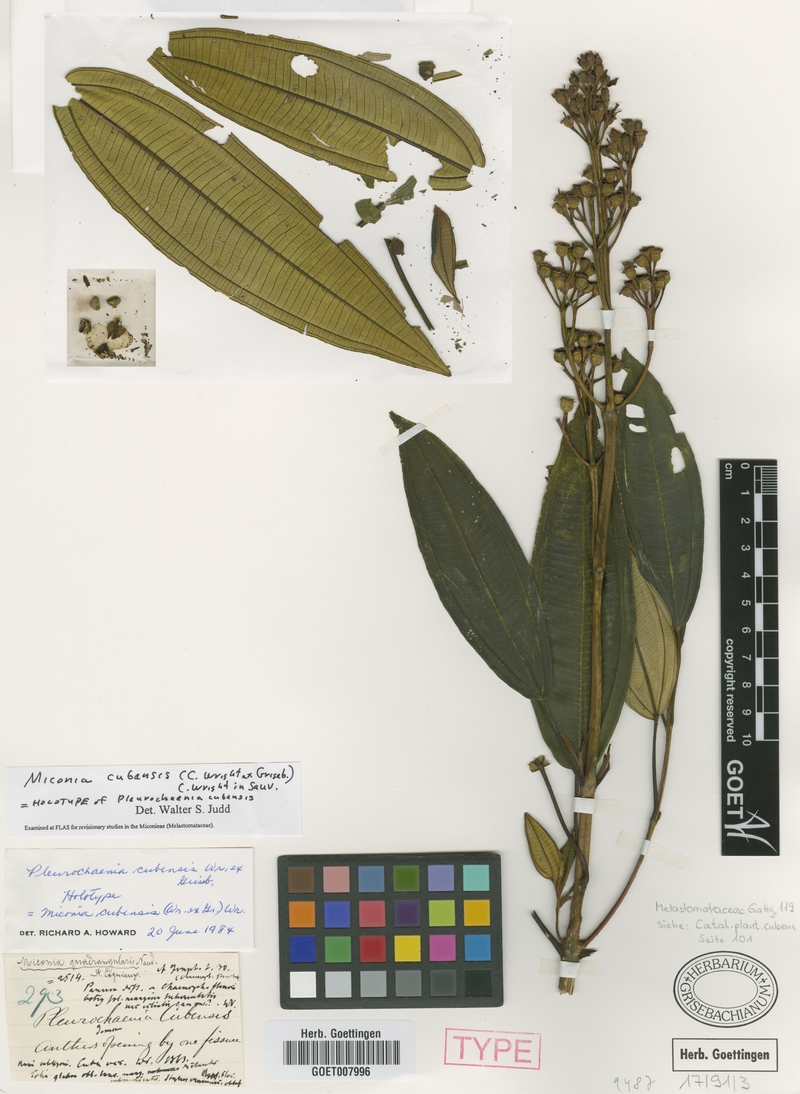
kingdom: Plantae
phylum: Tracheophyta
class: Magnoliopsida
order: Myrtales
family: Melastomataceae
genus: Miconia
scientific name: Miconia cubensis
